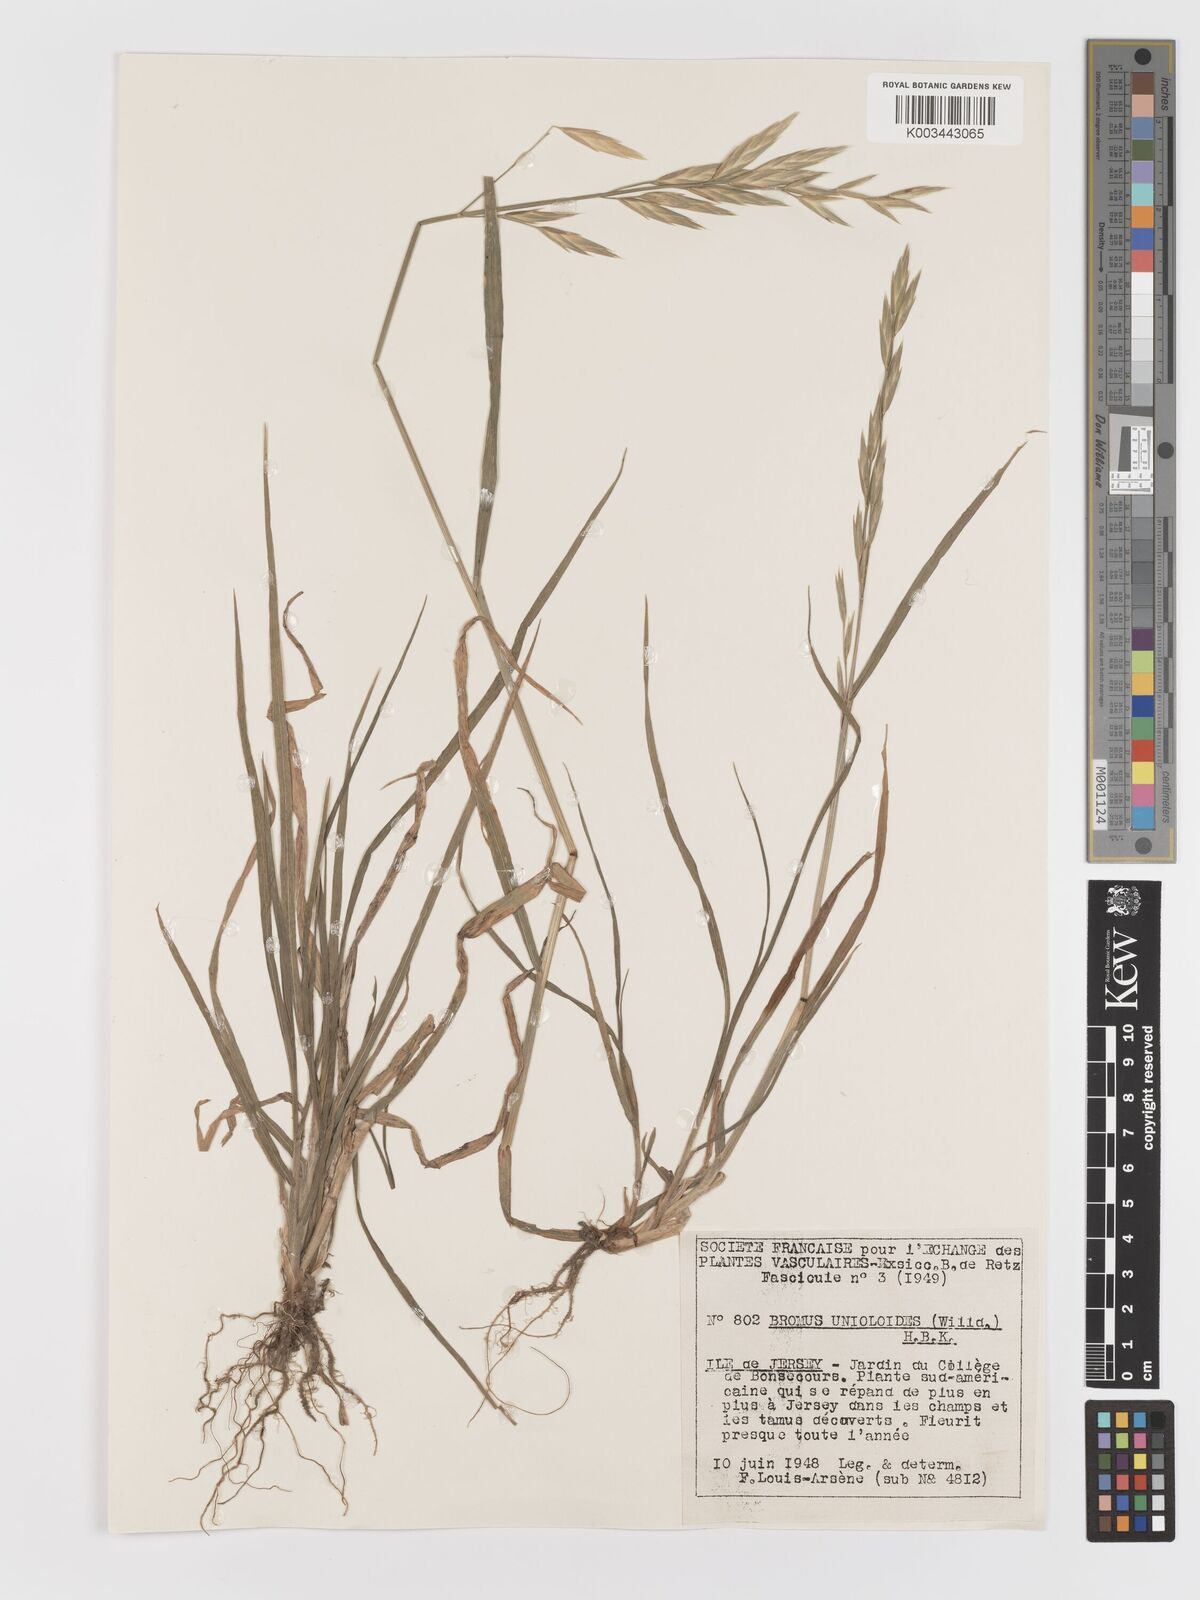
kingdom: Plantae
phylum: Tracheophyta
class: Liliopsida
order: Poales
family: Poaceae
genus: Bromus
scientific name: Bromus catharticus
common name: Rescuegrass
